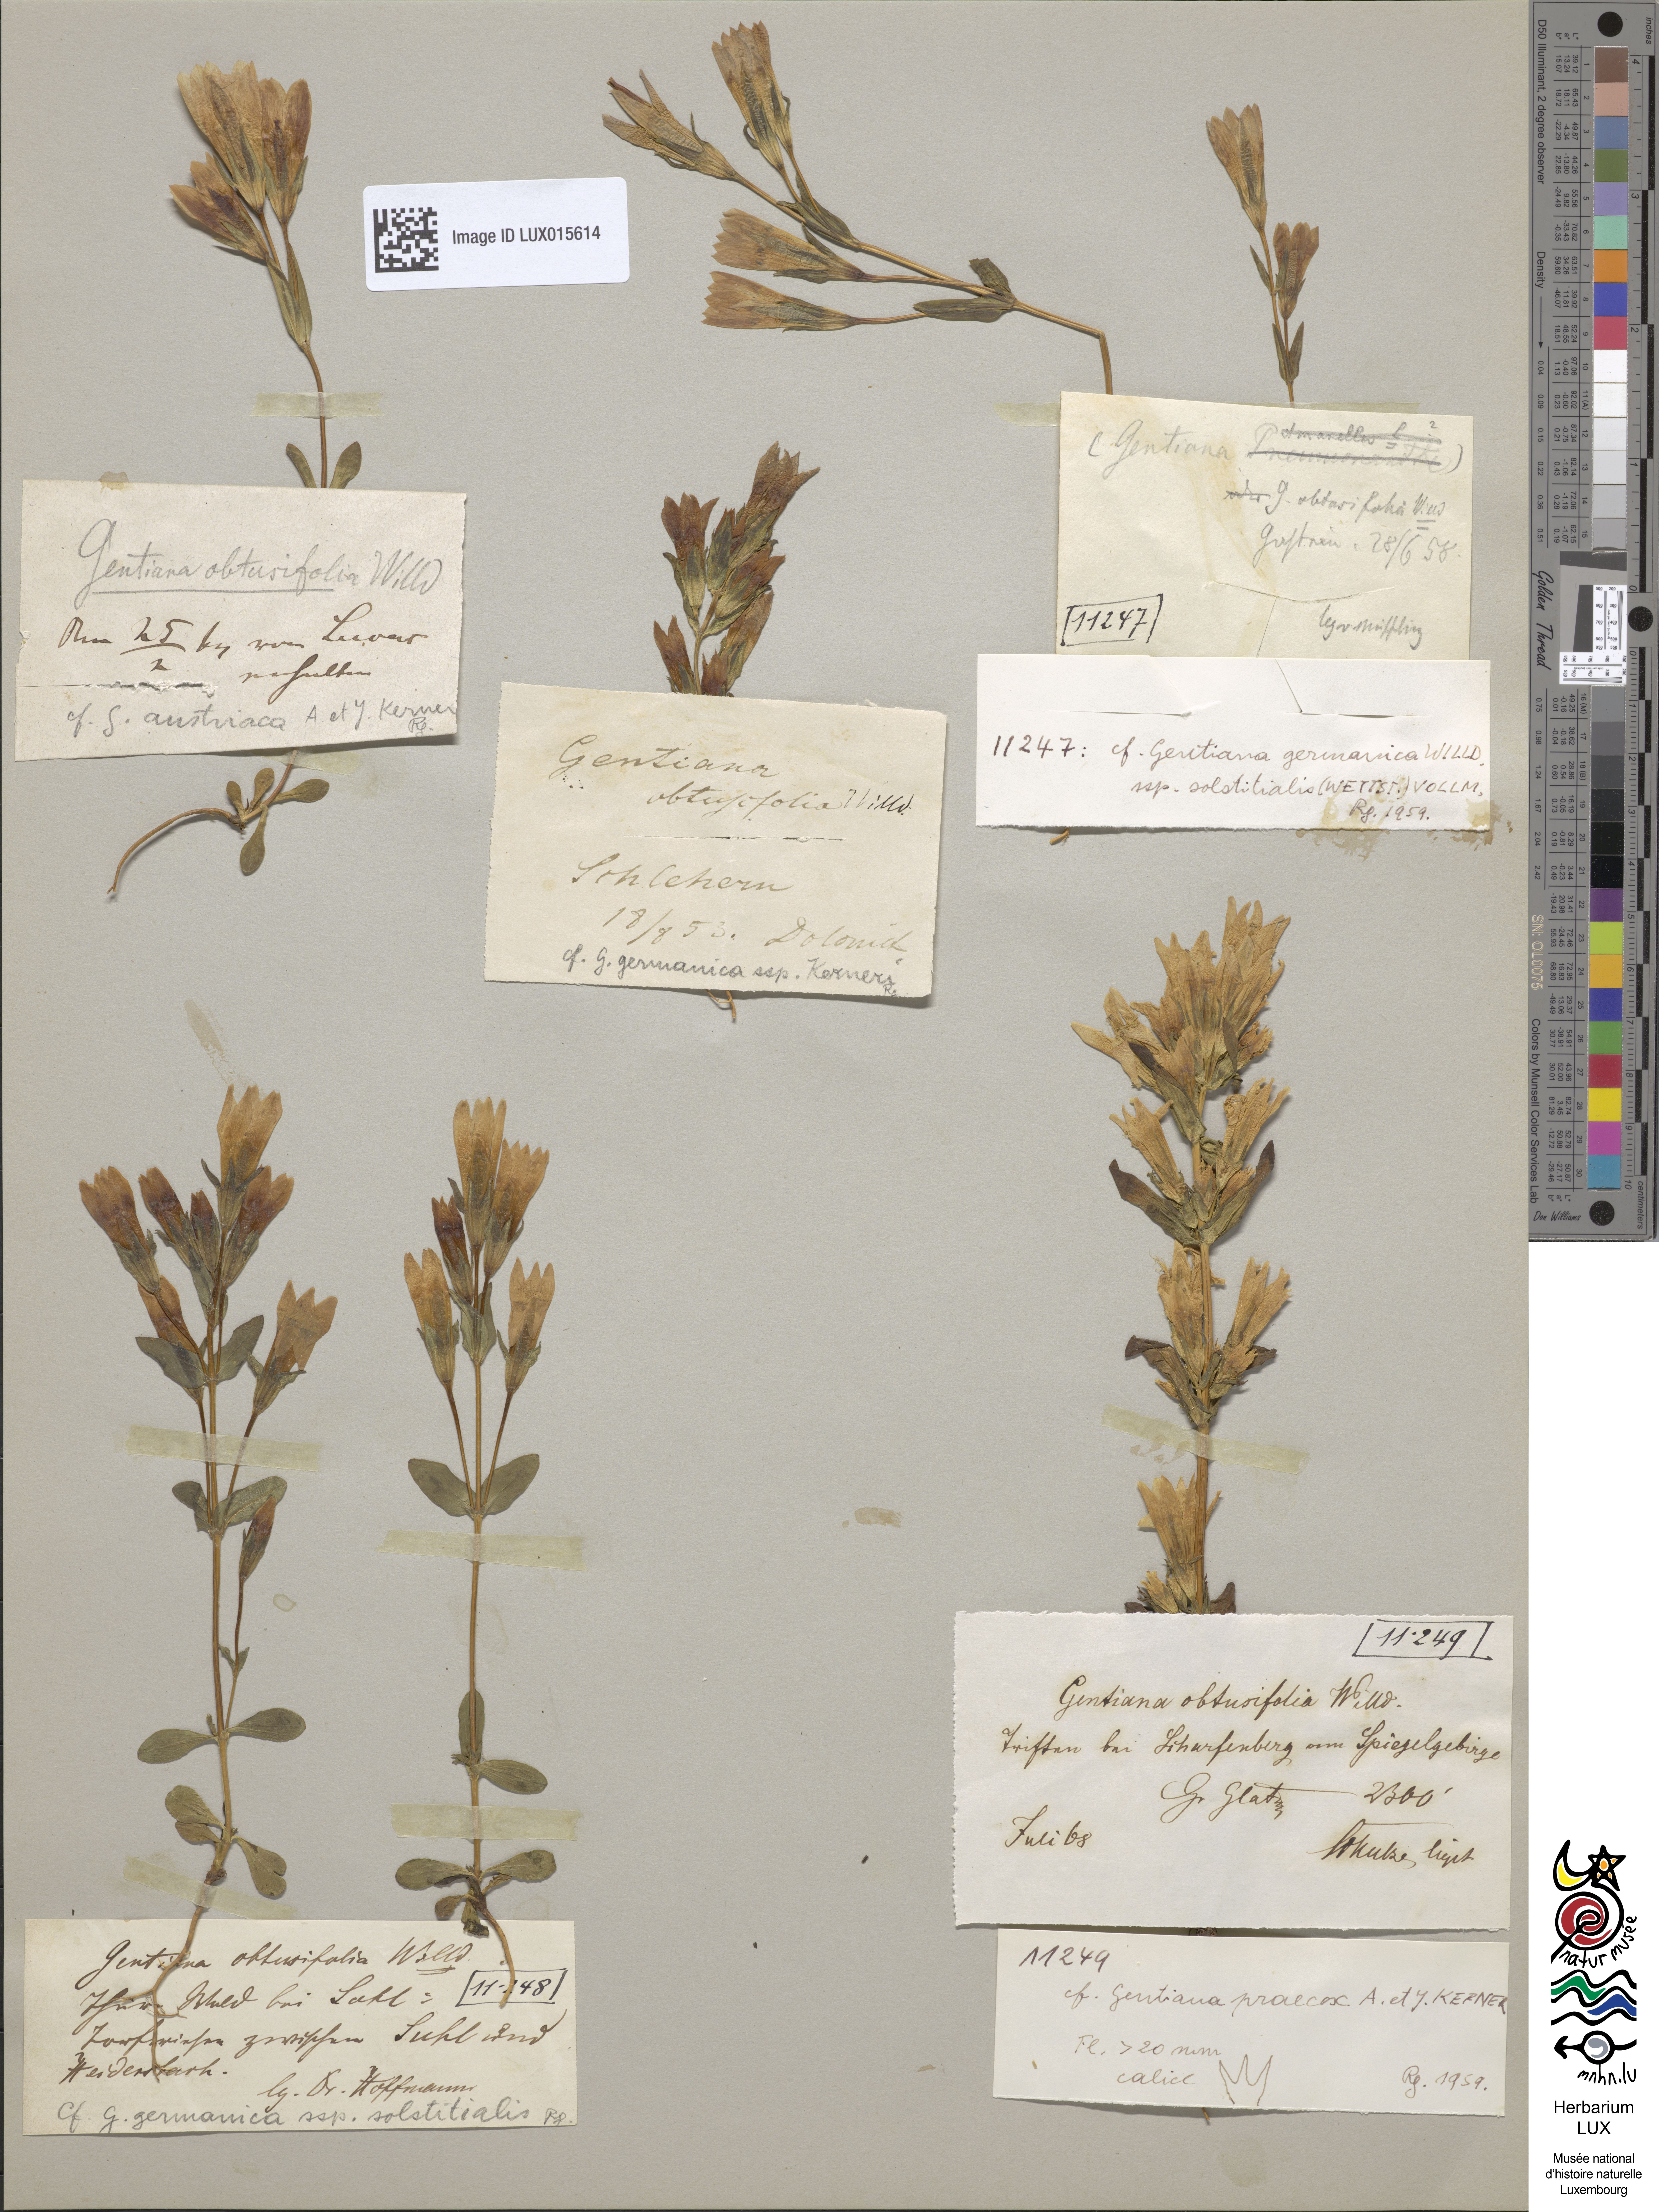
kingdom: Plantae
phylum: Tracheophyta
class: Magnoliopsida
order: Gentianales
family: Gentianaceae
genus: Gentianella
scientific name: Gentianella obtusifolia
